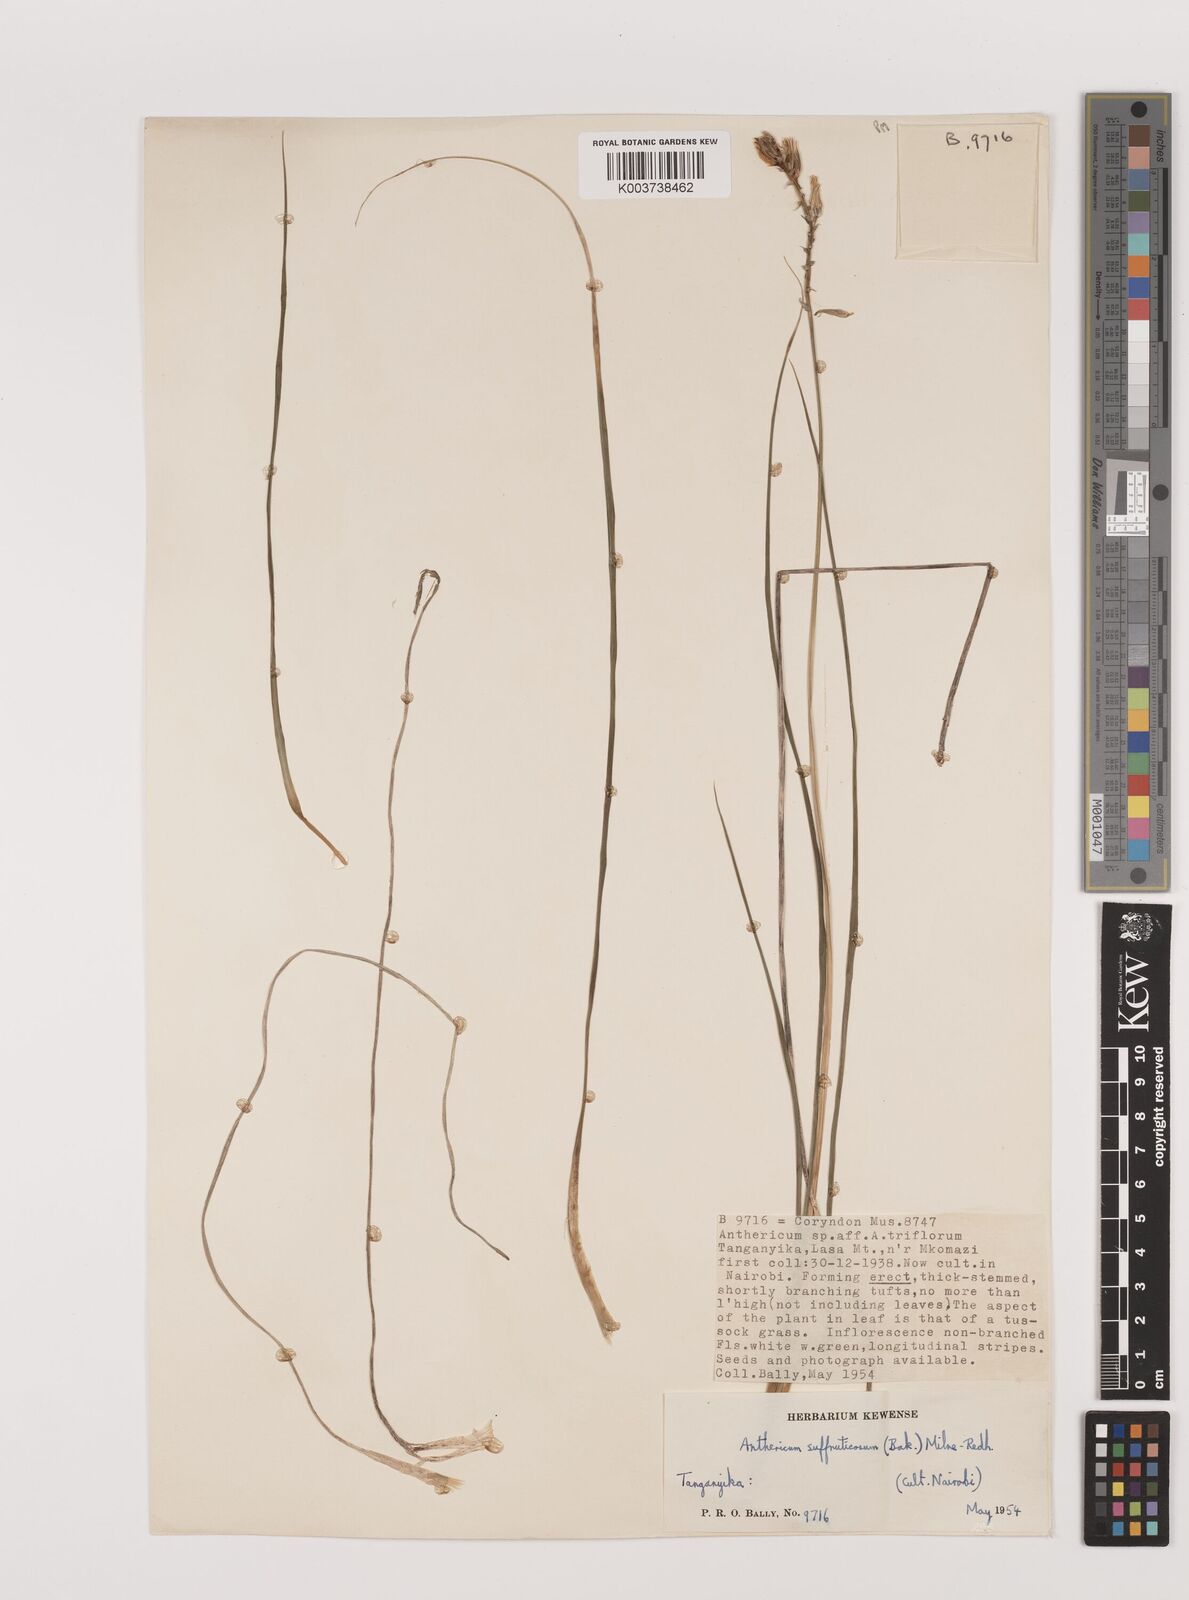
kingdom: Plantae
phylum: Tracheophyta
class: Liliopsida
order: Asparagales
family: Asparagaceae
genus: Chlorophytum
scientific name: Chlorophytum suffruticosum
